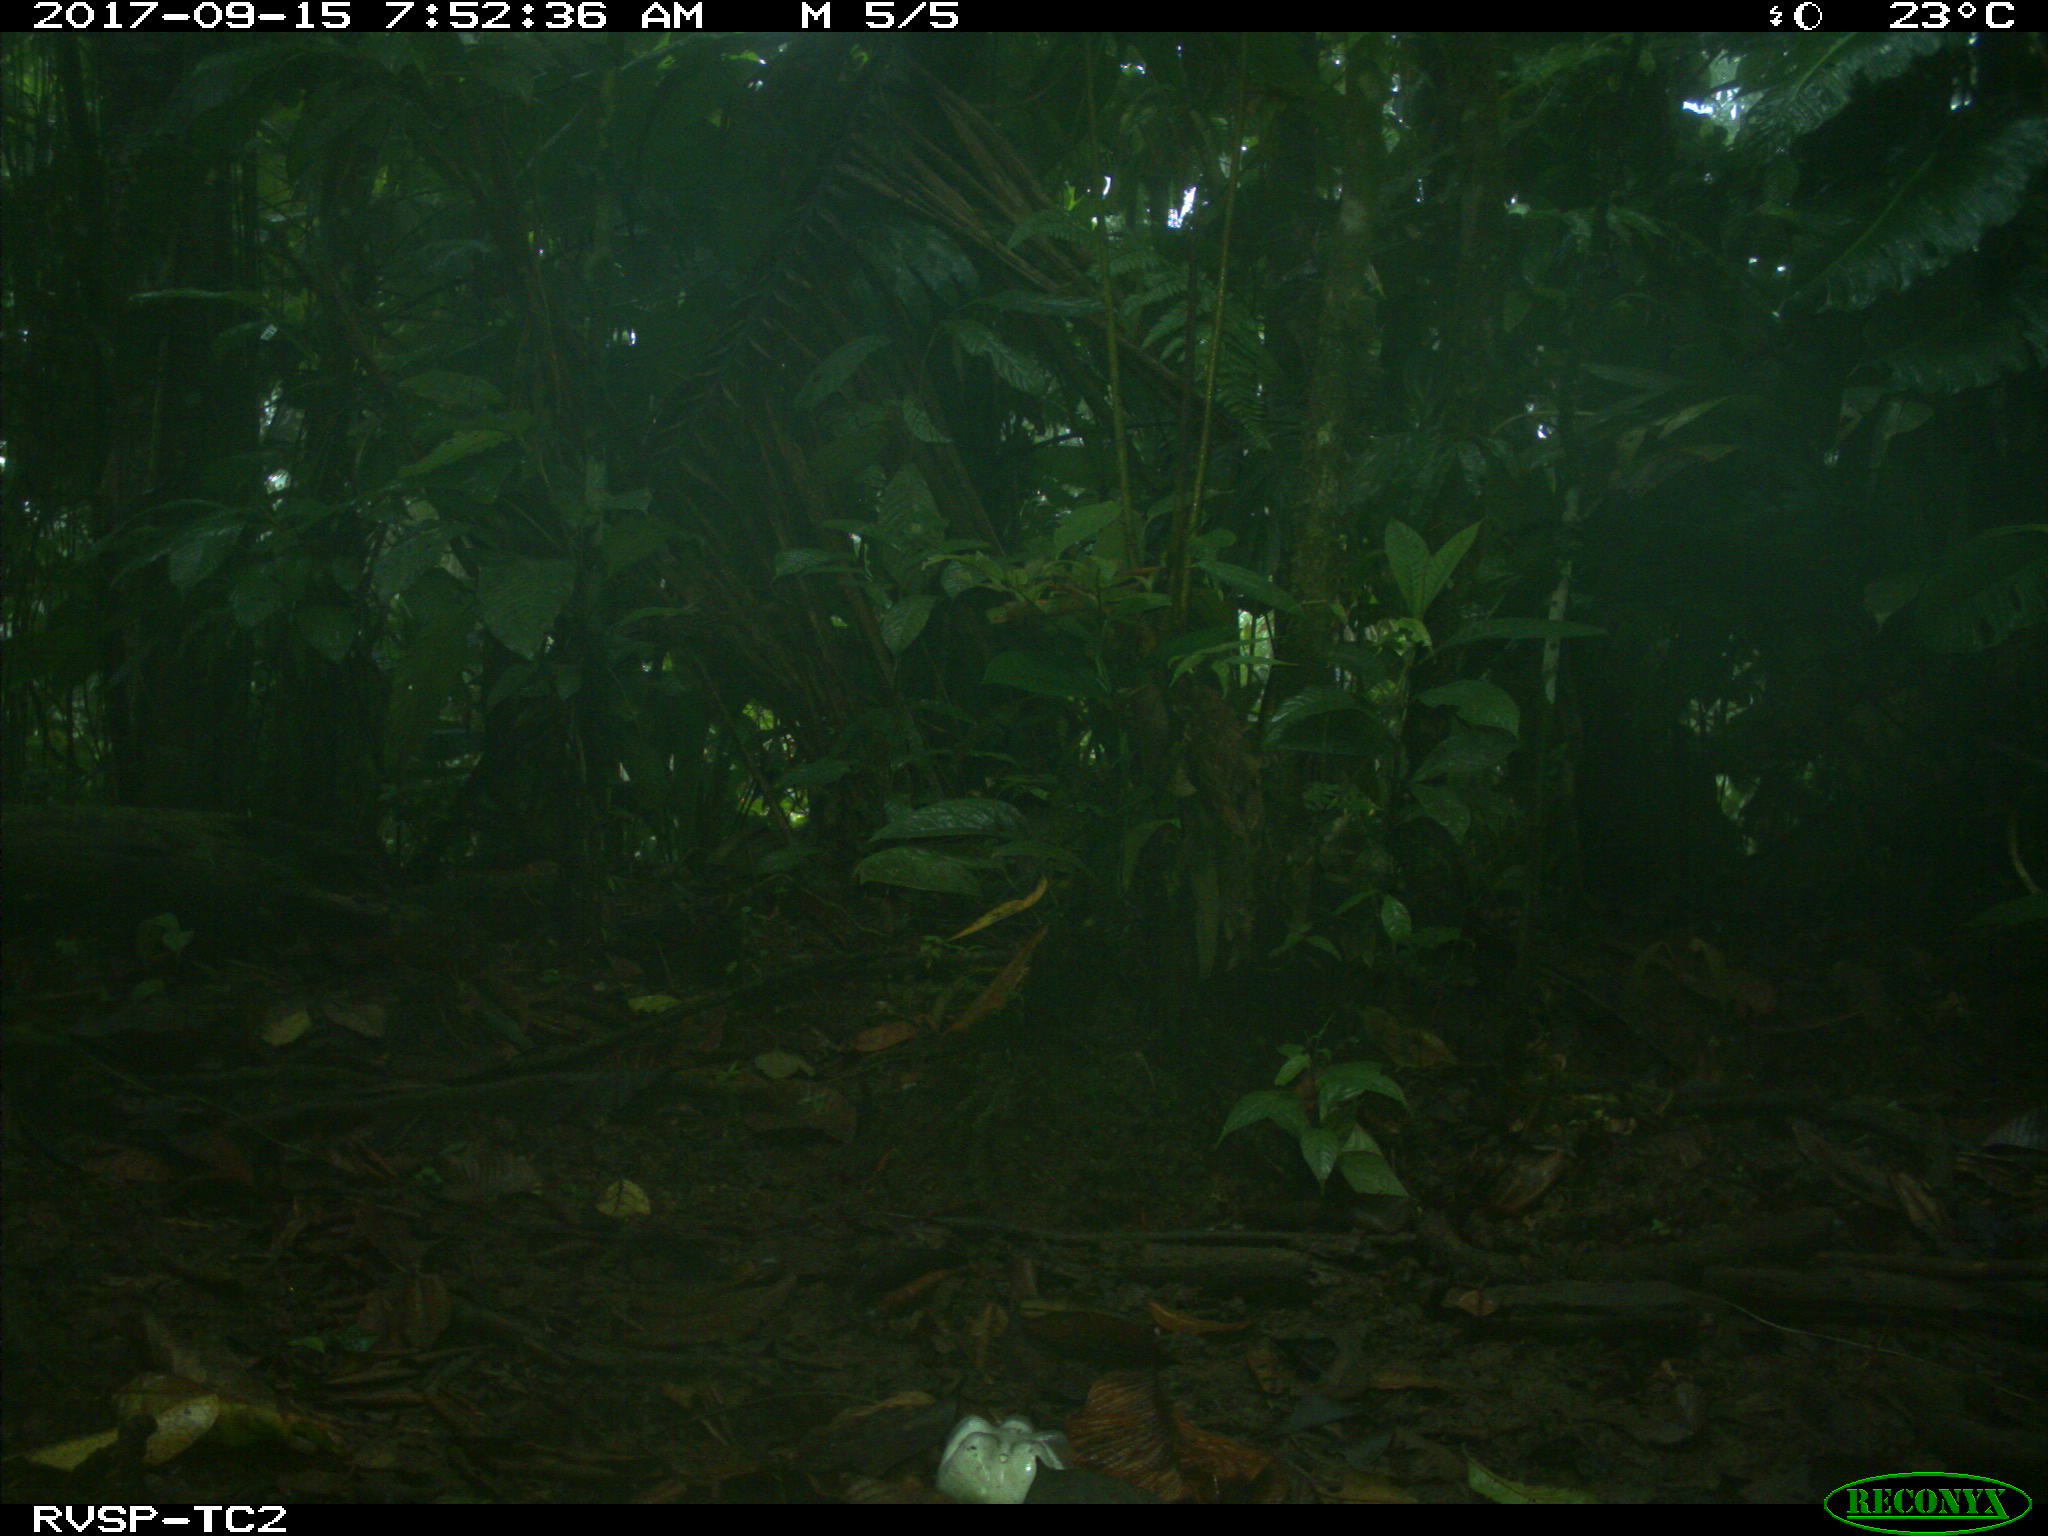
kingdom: Animalia
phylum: Chordata
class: Mammalia
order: Rodentia
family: Dasyproctidae
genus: Dasyprocta
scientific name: Dasyprocta punctata
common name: Central american agouti
